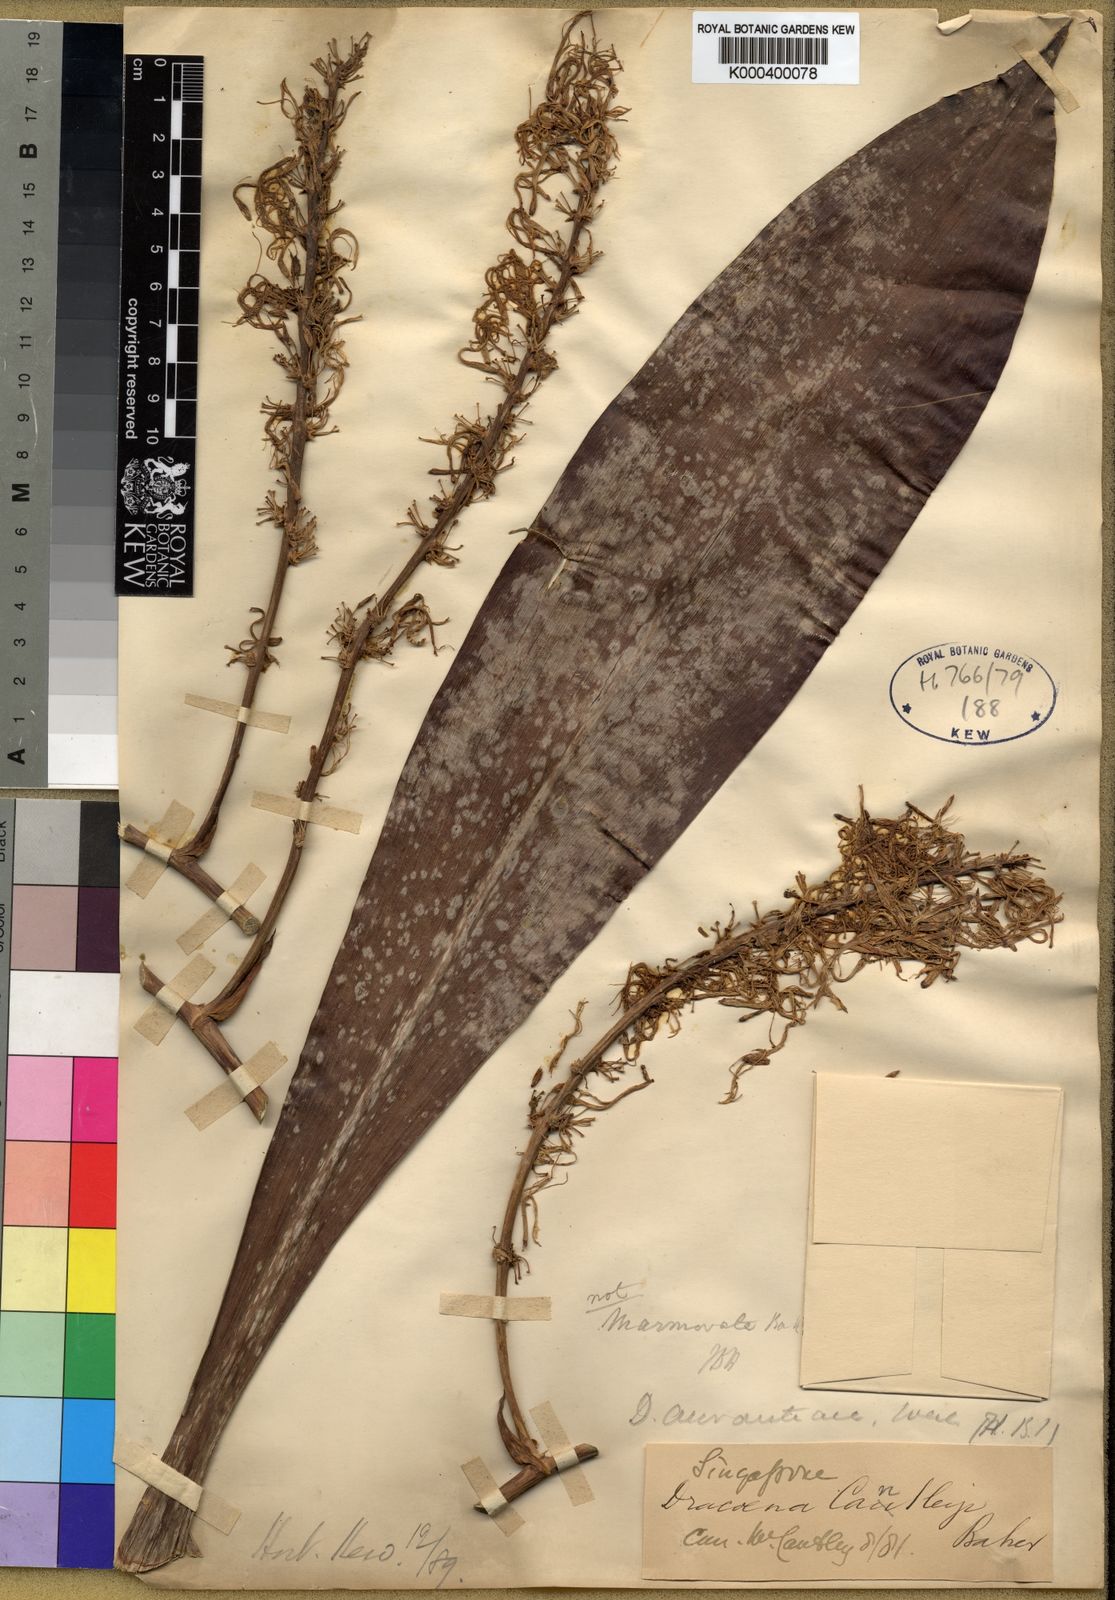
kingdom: Plantae
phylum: Tracheophyta
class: Liliopsida
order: Asparagales
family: Asparagaceae
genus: Dracaena
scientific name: Dracaena
